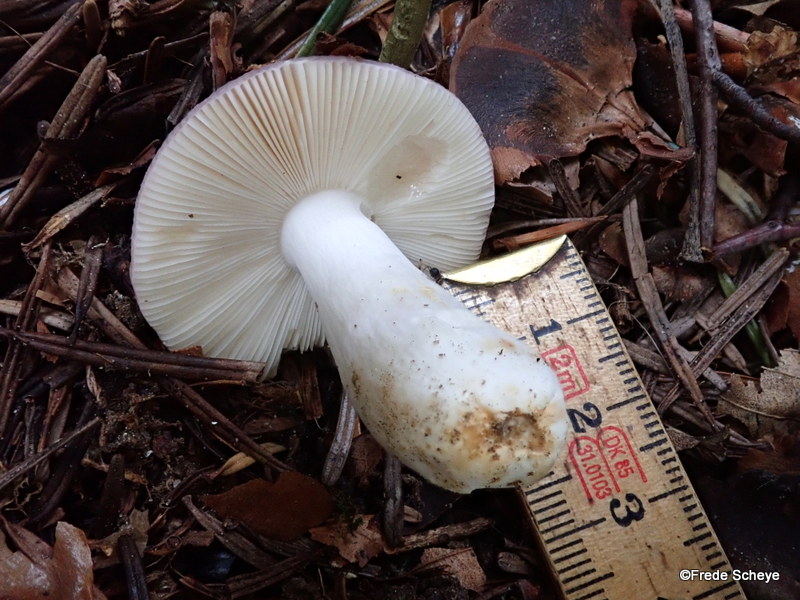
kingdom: Fungi
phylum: Basidiomycota
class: Agaricomycetes
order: Russulales
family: Russulaceae
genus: Russula
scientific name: Russula cyanoxantha
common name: broget skørhat
